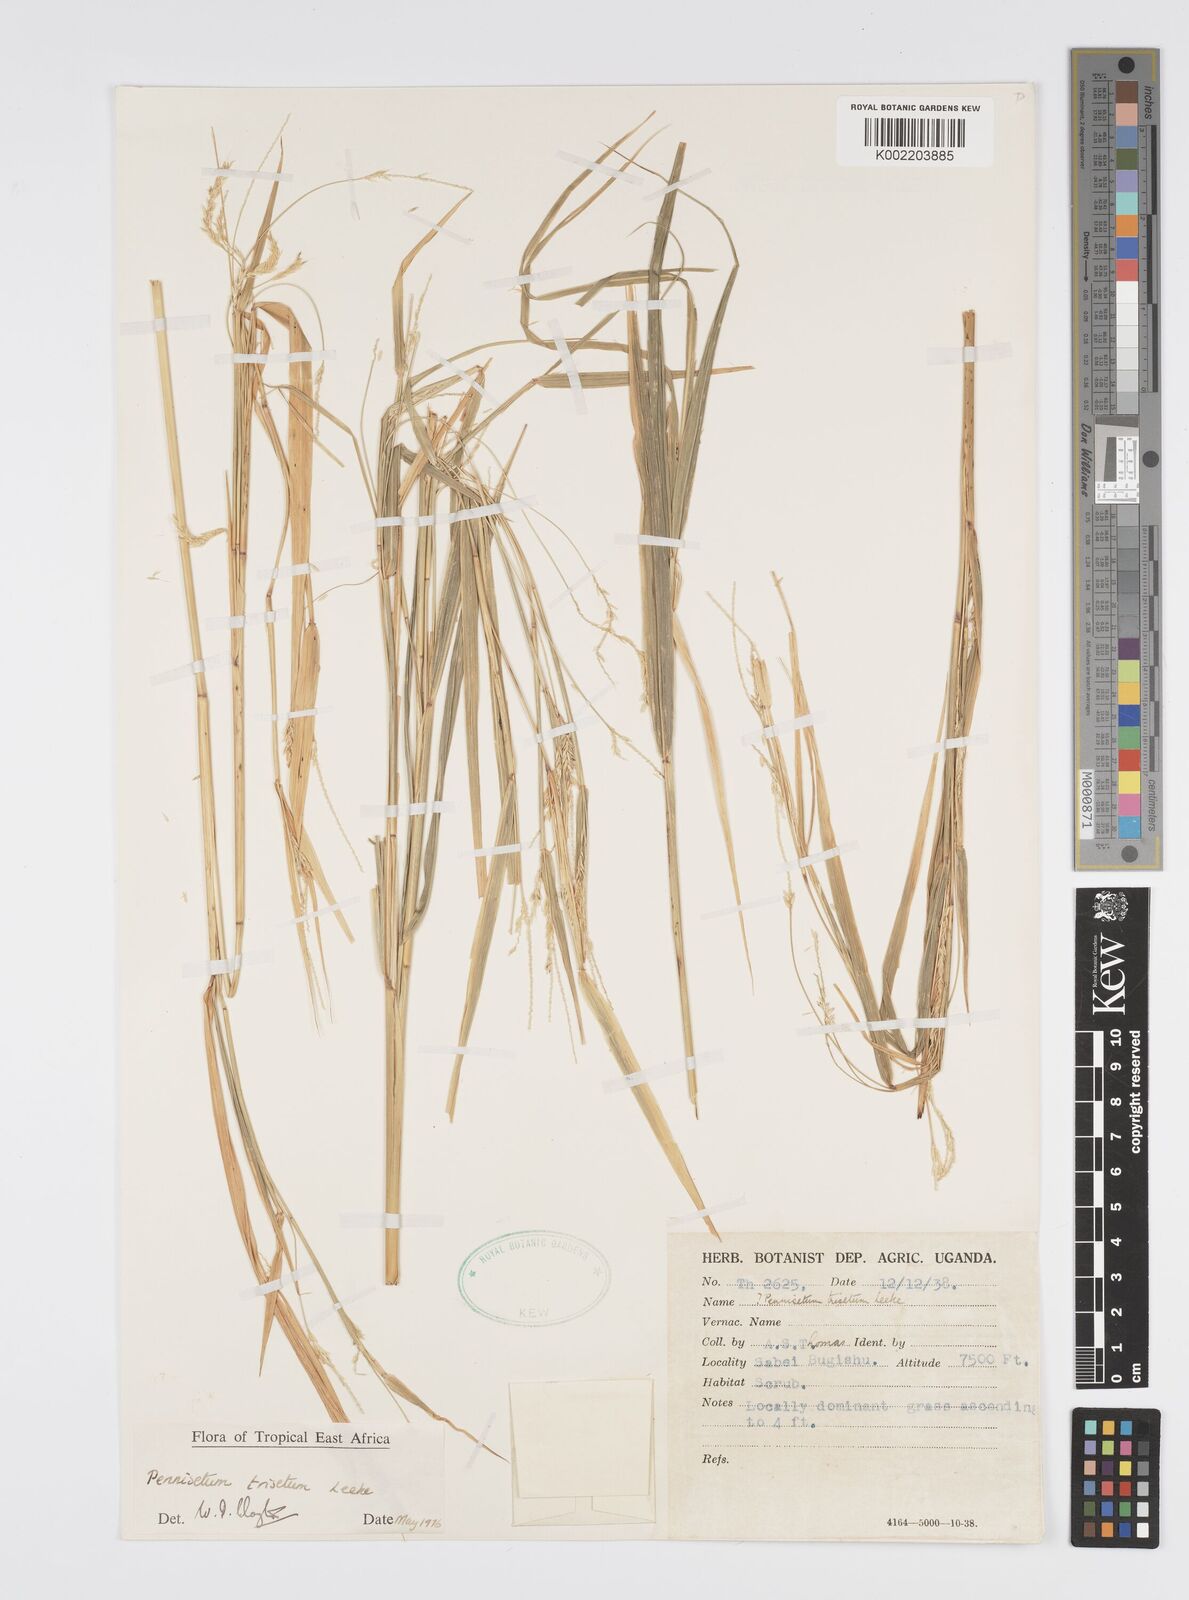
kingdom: Plantae
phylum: Tracheophyta
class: Liliopsida
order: Poales
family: Poaceae
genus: Cenchrus
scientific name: Cenchrus trisetus
